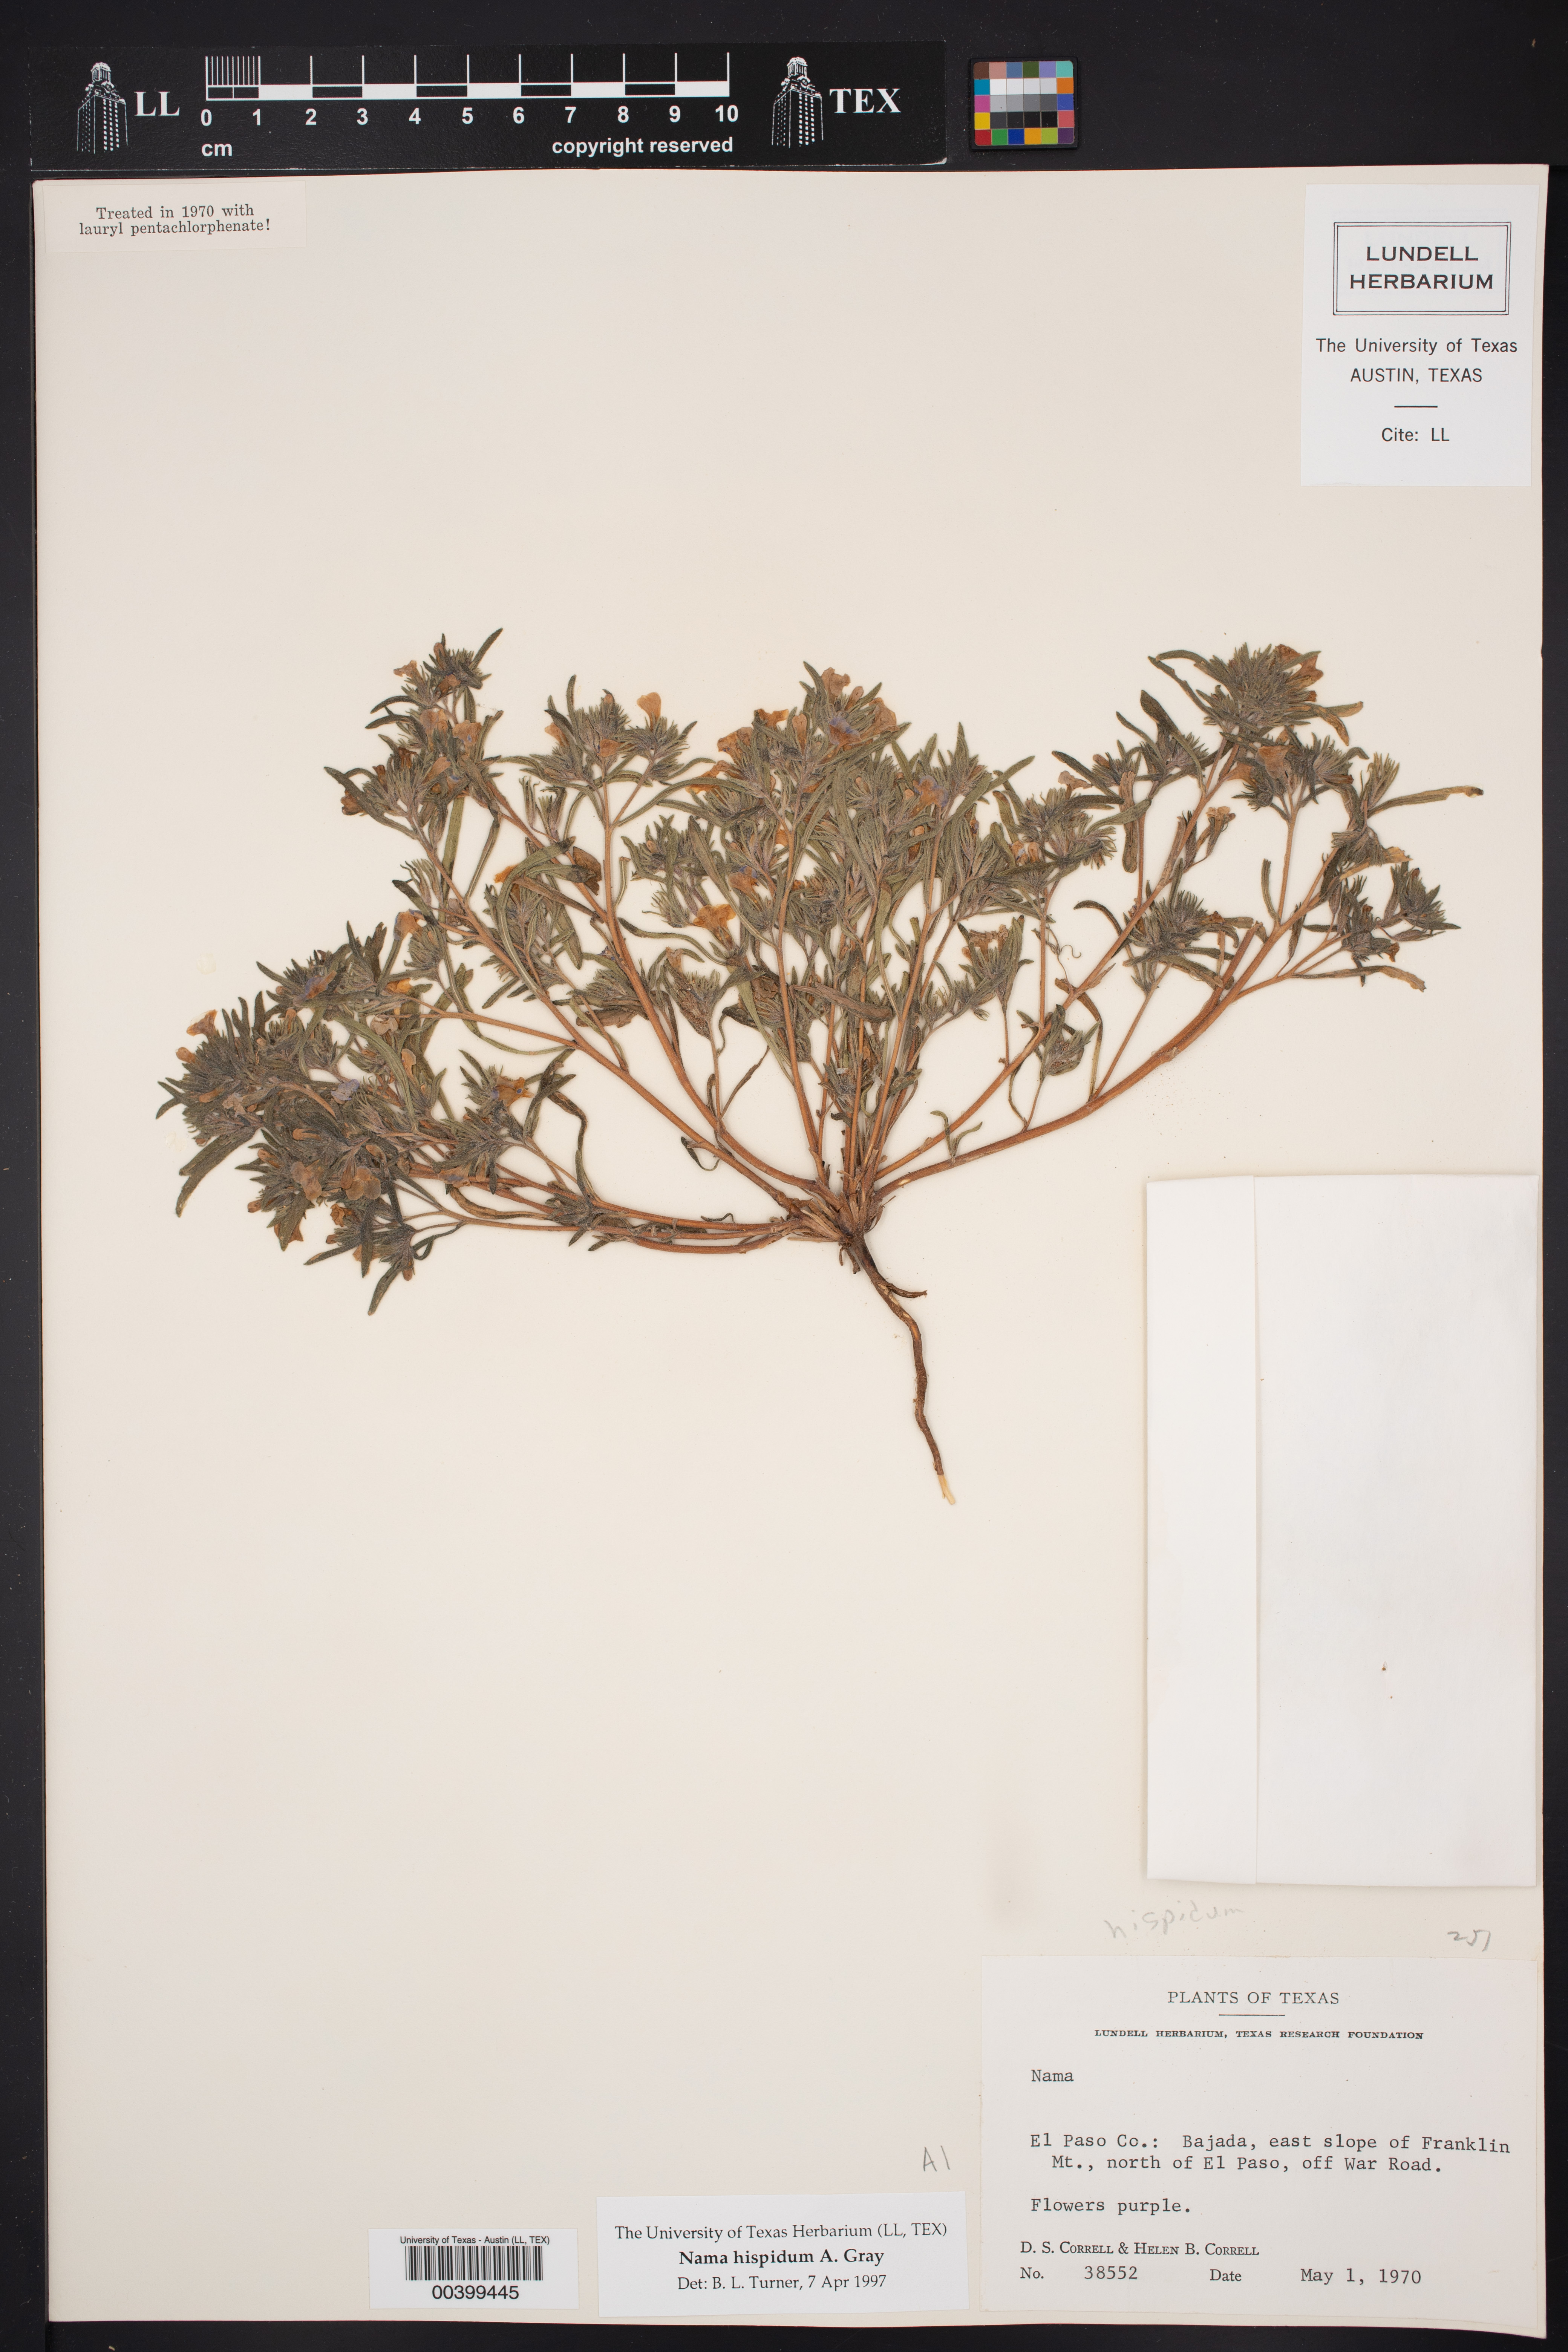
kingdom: Plantae
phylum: Tracheophyta
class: Magnoliopsida
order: Boraginales
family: Namaceae
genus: Nama
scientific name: Nama hispida
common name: Bristly nama
